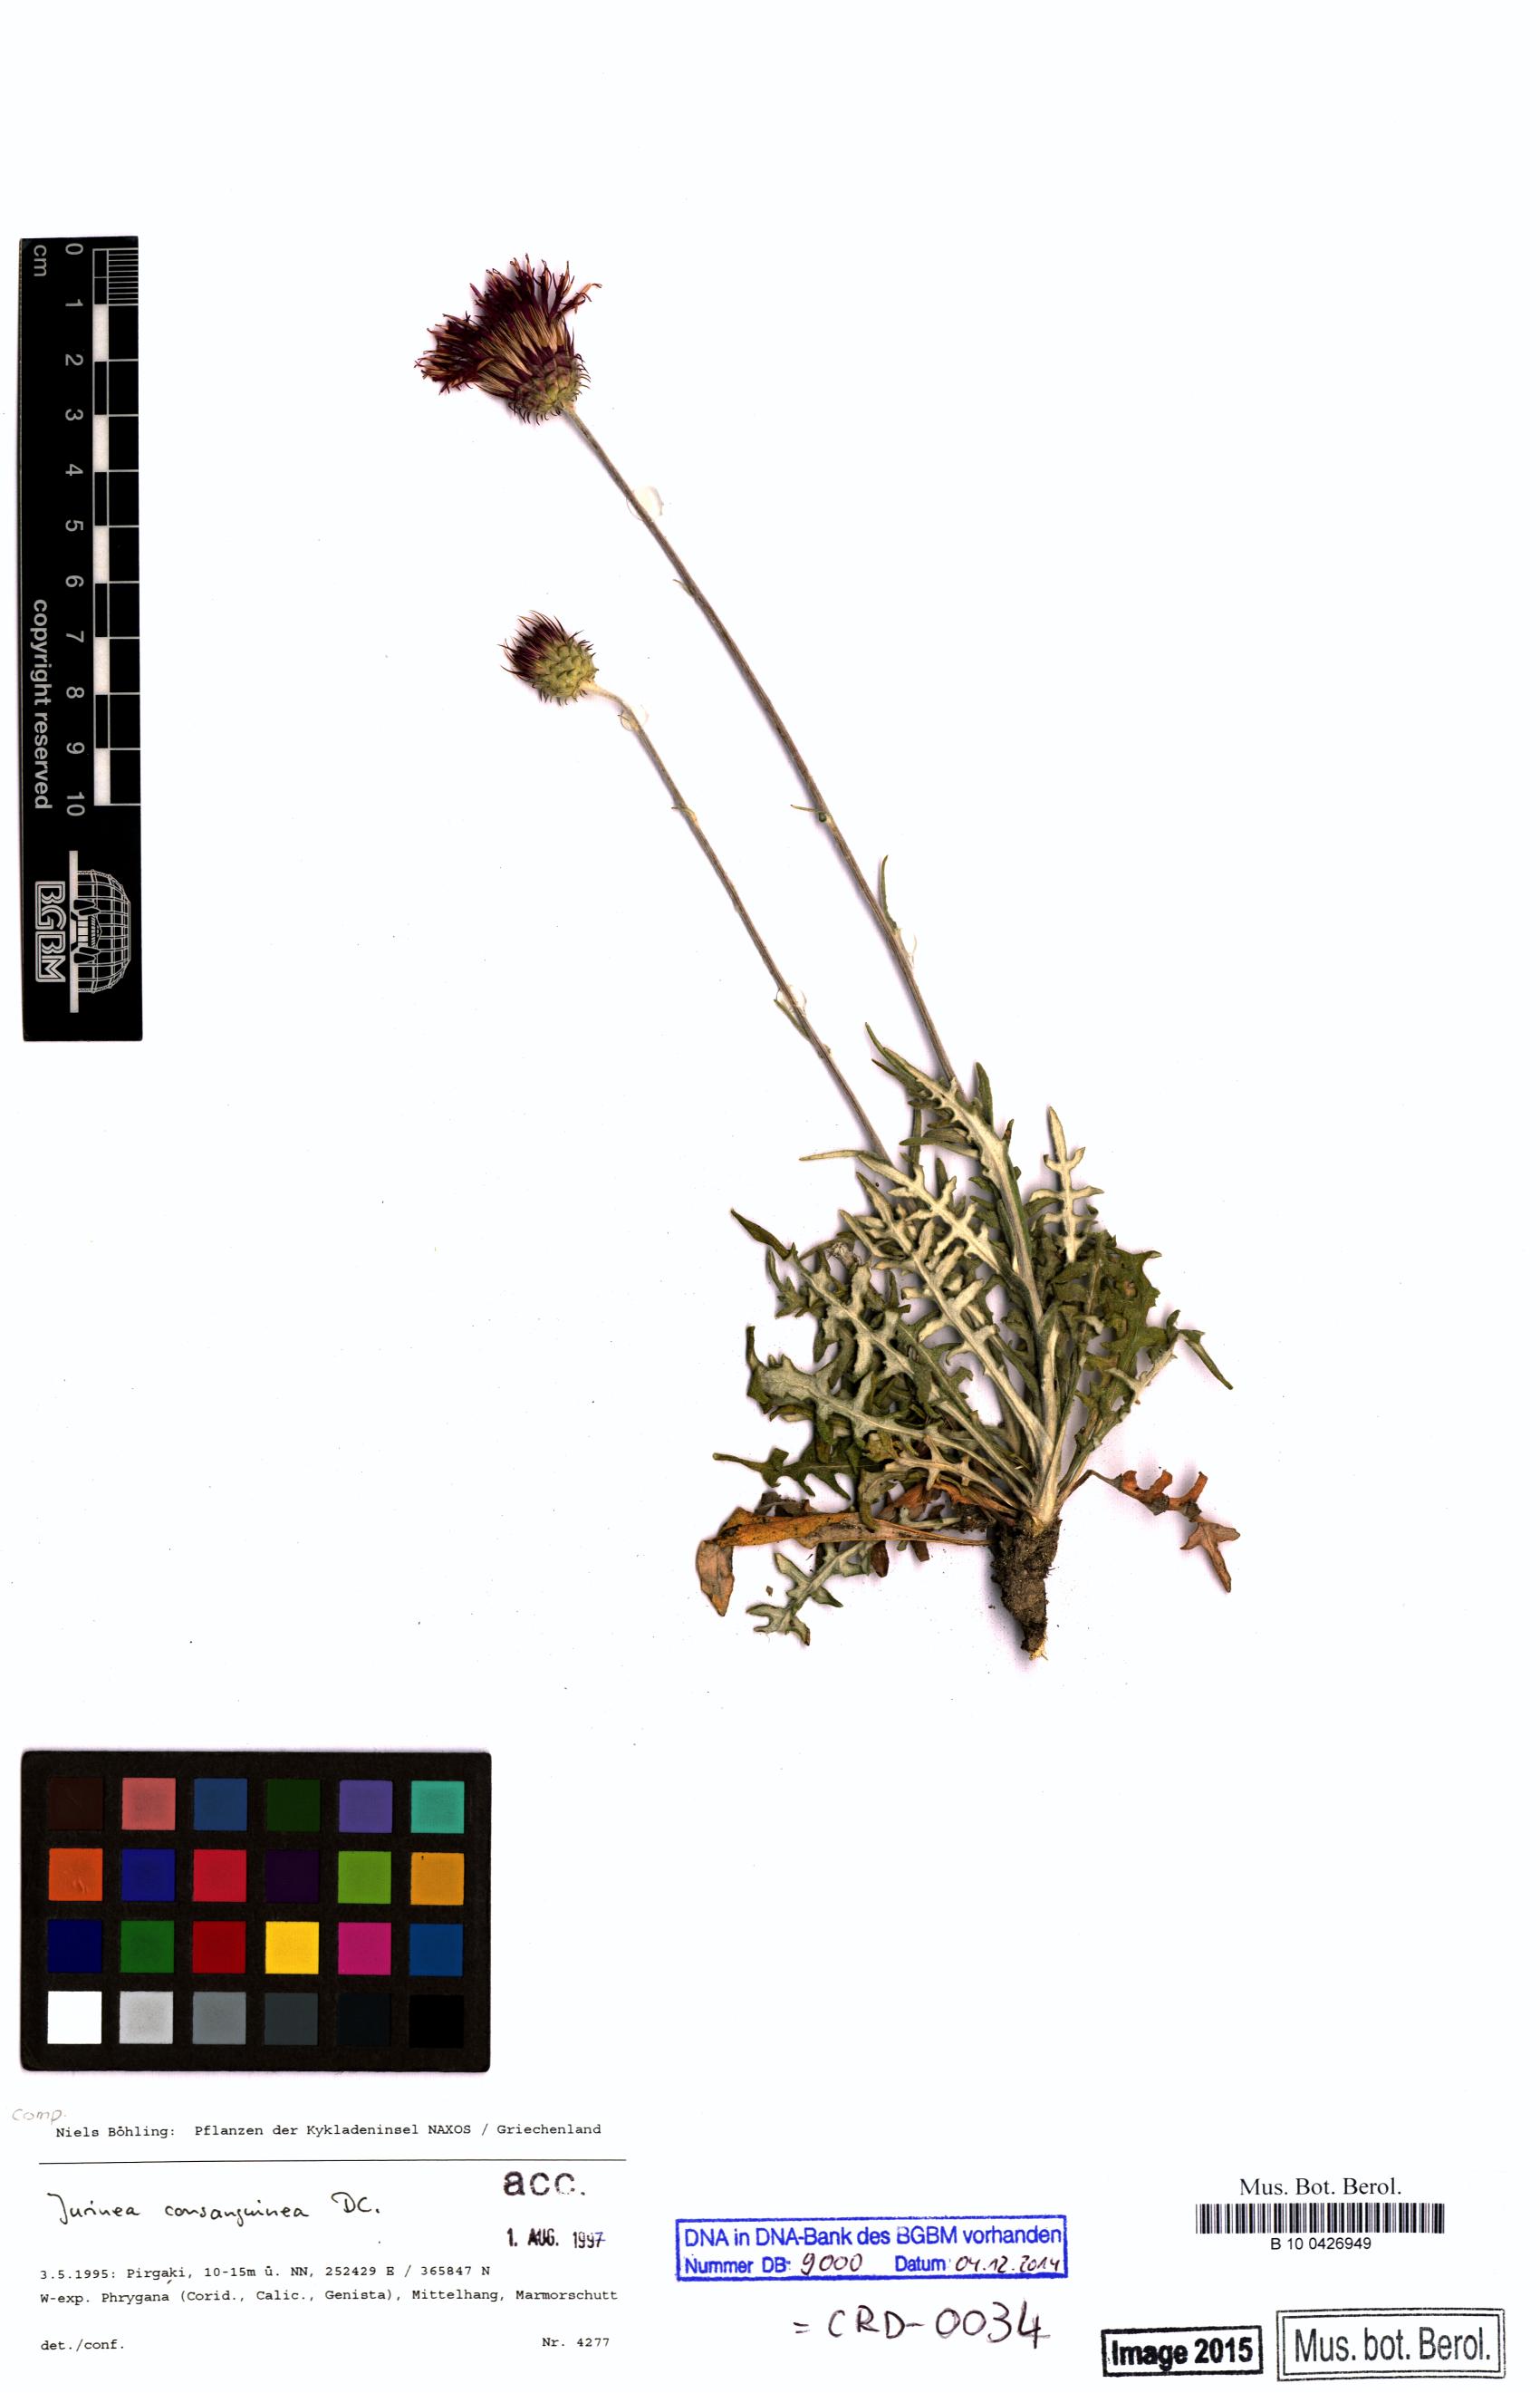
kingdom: Plantae
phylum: Tracheophyta
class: Magnoliopsida
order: Asterales
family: Asteraceae
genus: Jurinea
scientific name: Jurinea consanguinea
